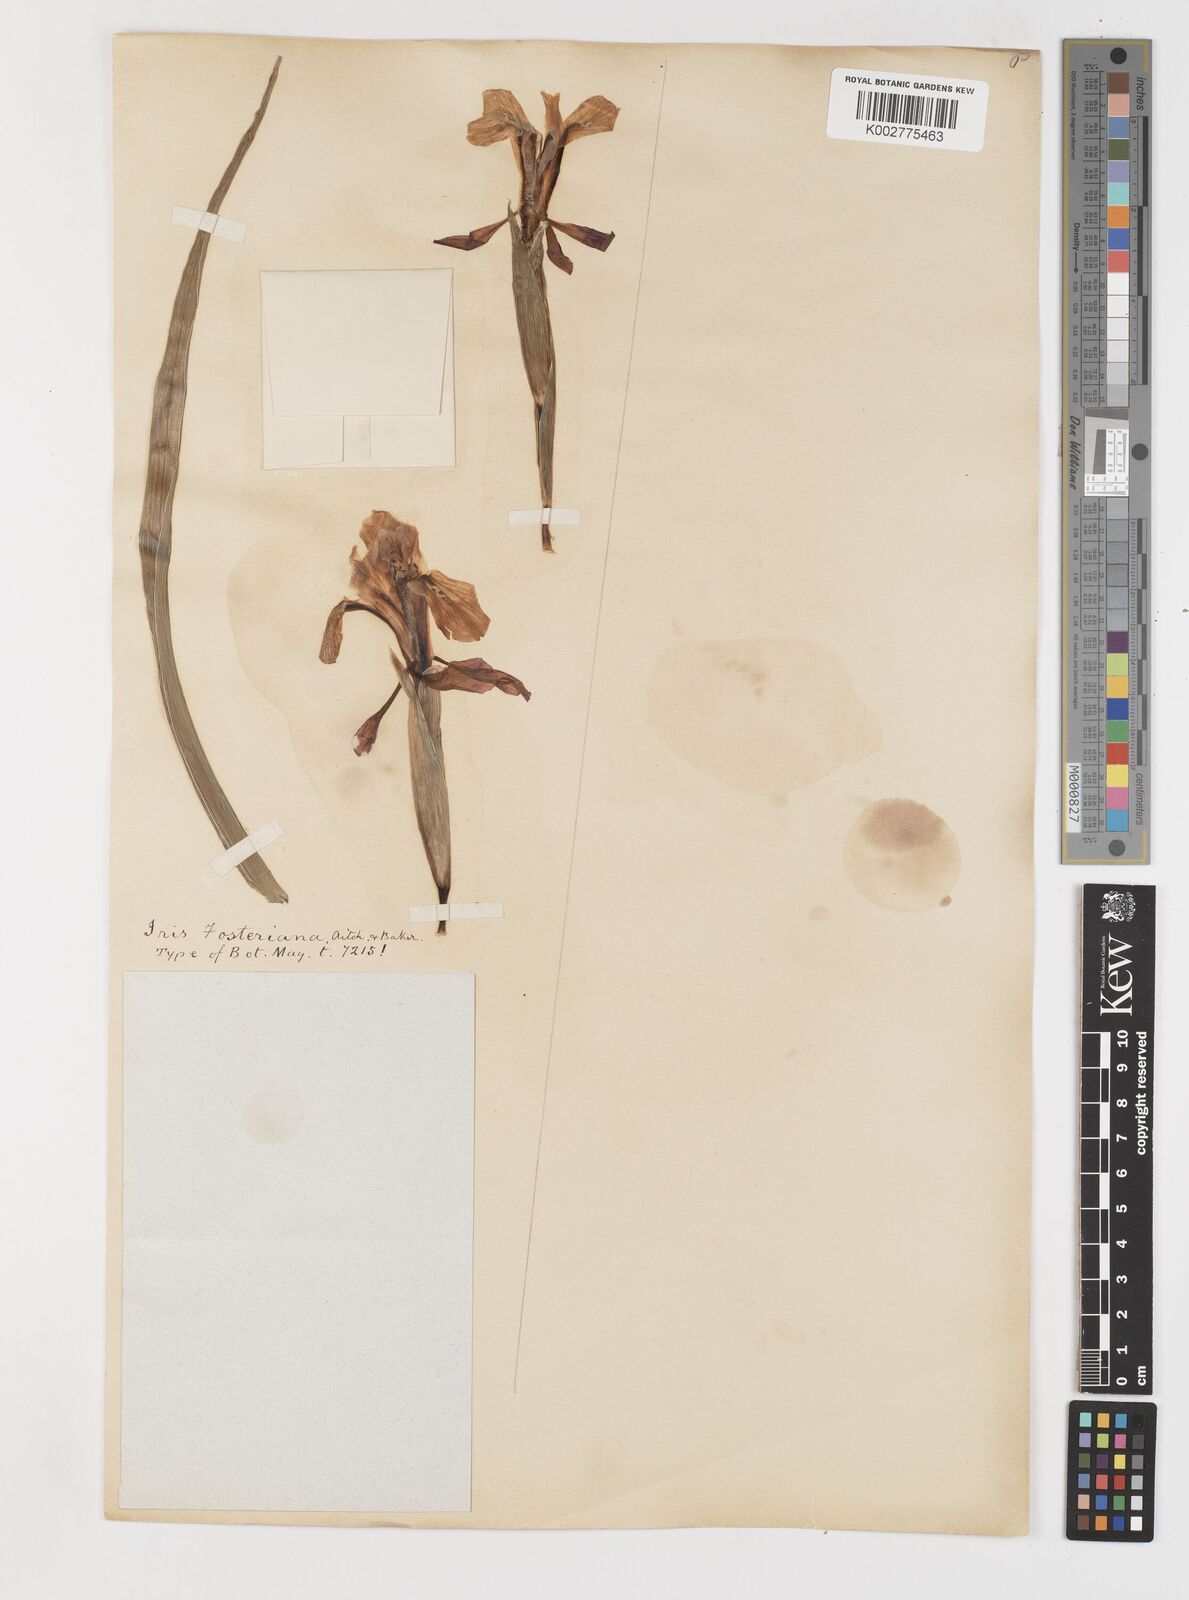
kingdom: Plantae
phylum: Tracheophyta
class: Liliopsida
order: Asparagales
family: Iridaceae
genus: Iris
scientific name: Iris fosteriana
